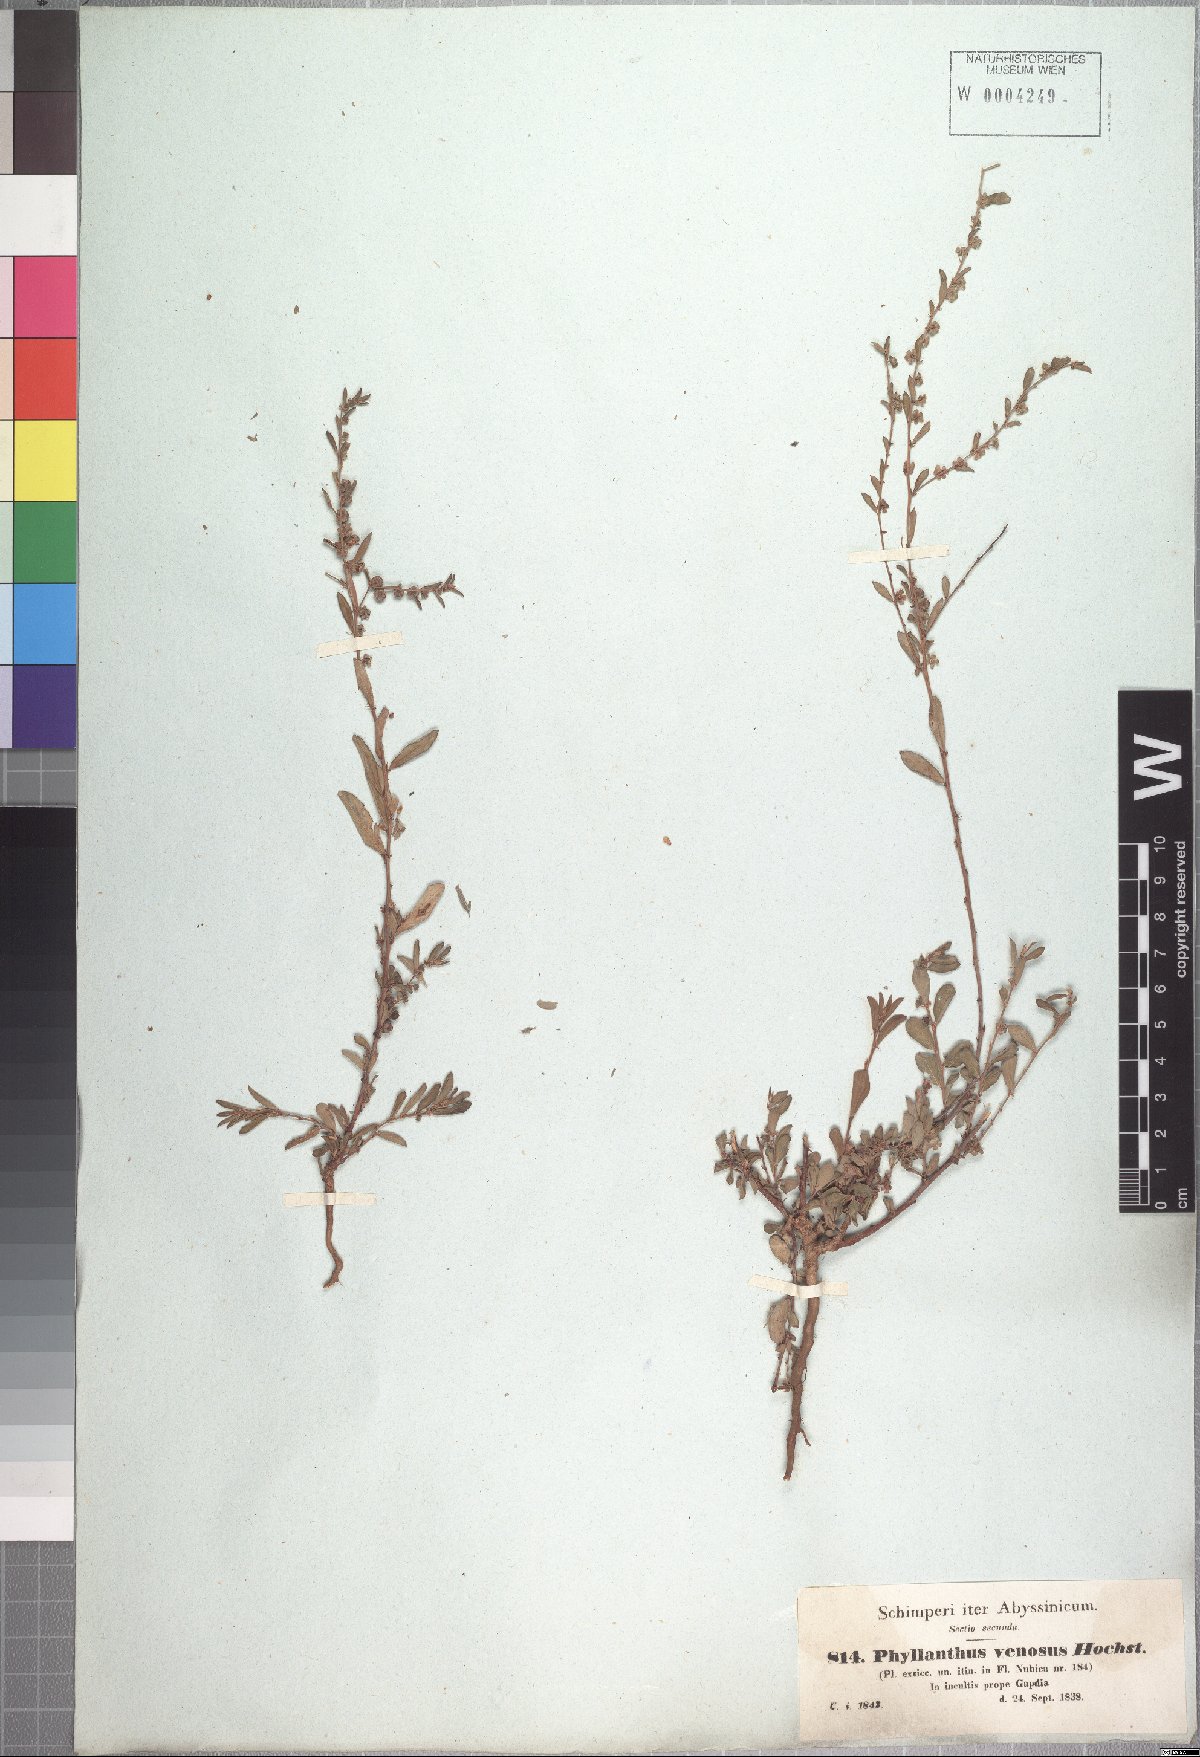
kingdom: Plantae
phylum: Tracheophyta
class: Magnoliopsida
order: Malpighiales
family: Phyllanthaceae
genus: Phyllanthus
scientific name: Phyllanthus maderaspatensis
